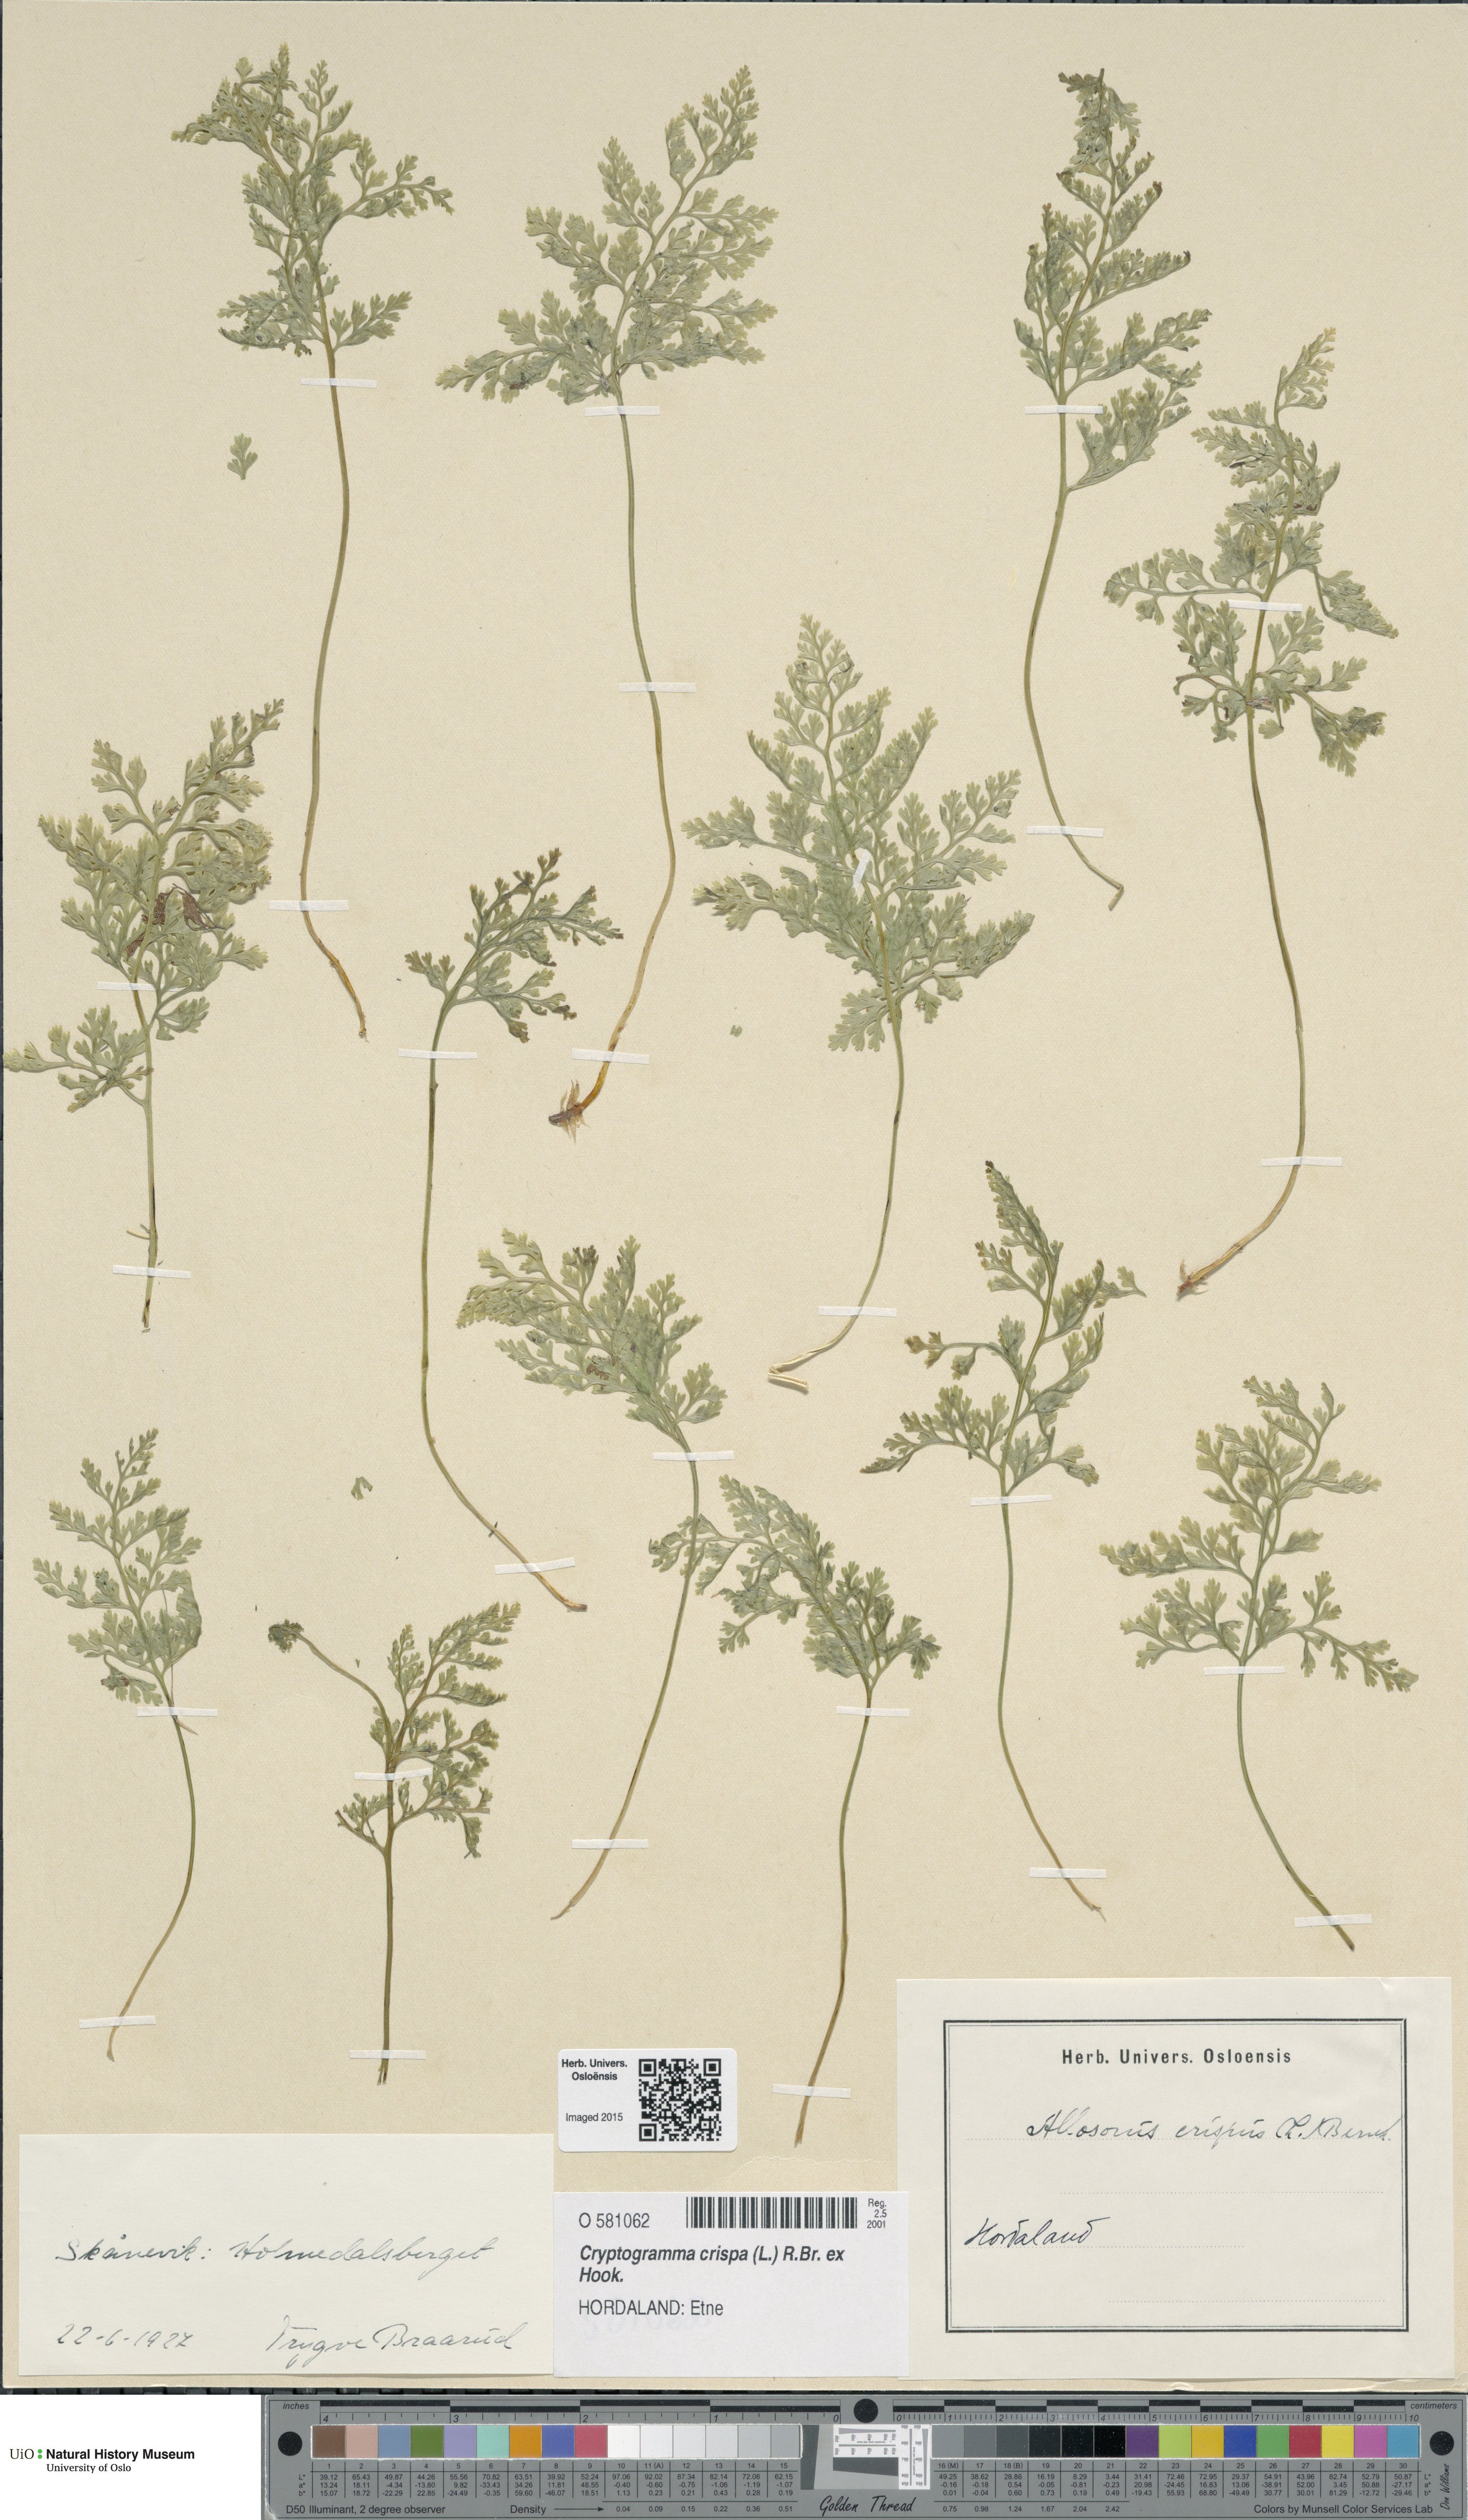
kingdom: Plantae
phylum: Tracheophyta
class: Polypodiopsida
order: Polypodiales
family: Pteridaceae
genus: Cryptogramma
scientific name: Cryptogramma crispa
